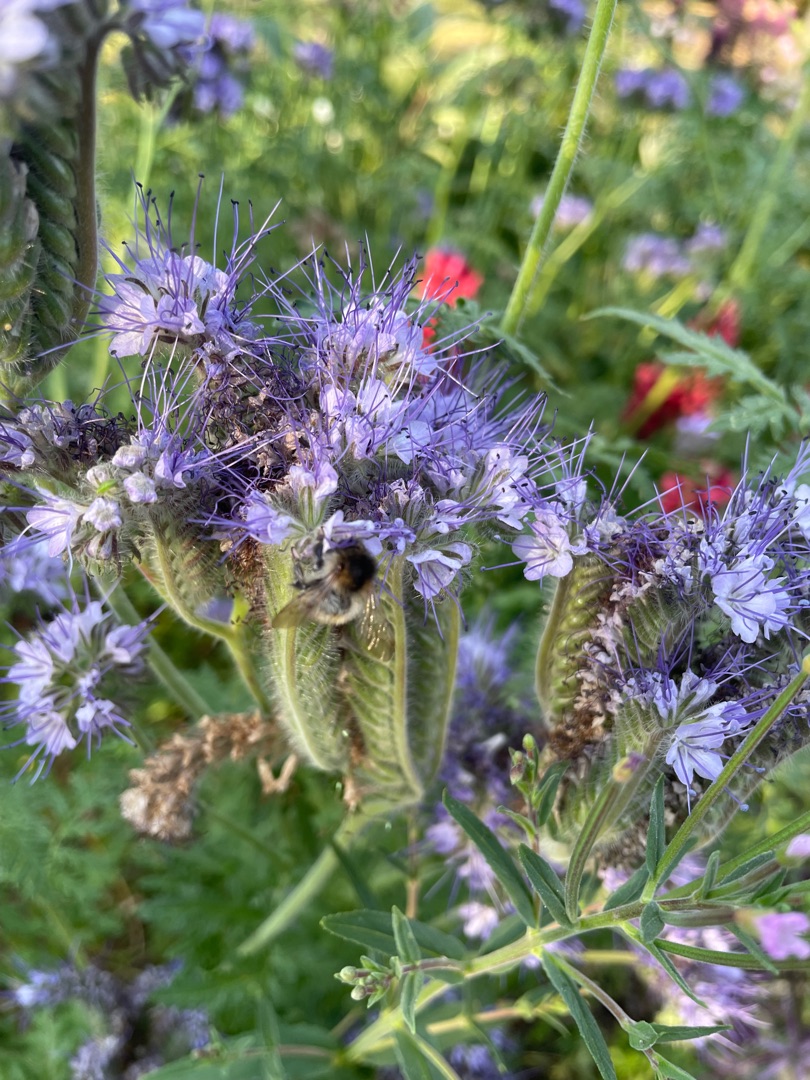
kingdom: Plantae
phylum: Tracheophyta
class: Magnoliopsida
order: Boraginales
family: Hydrophyllaceae
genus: Phacelia
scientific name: Phacelia tanacetifolia
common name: Honningurt
